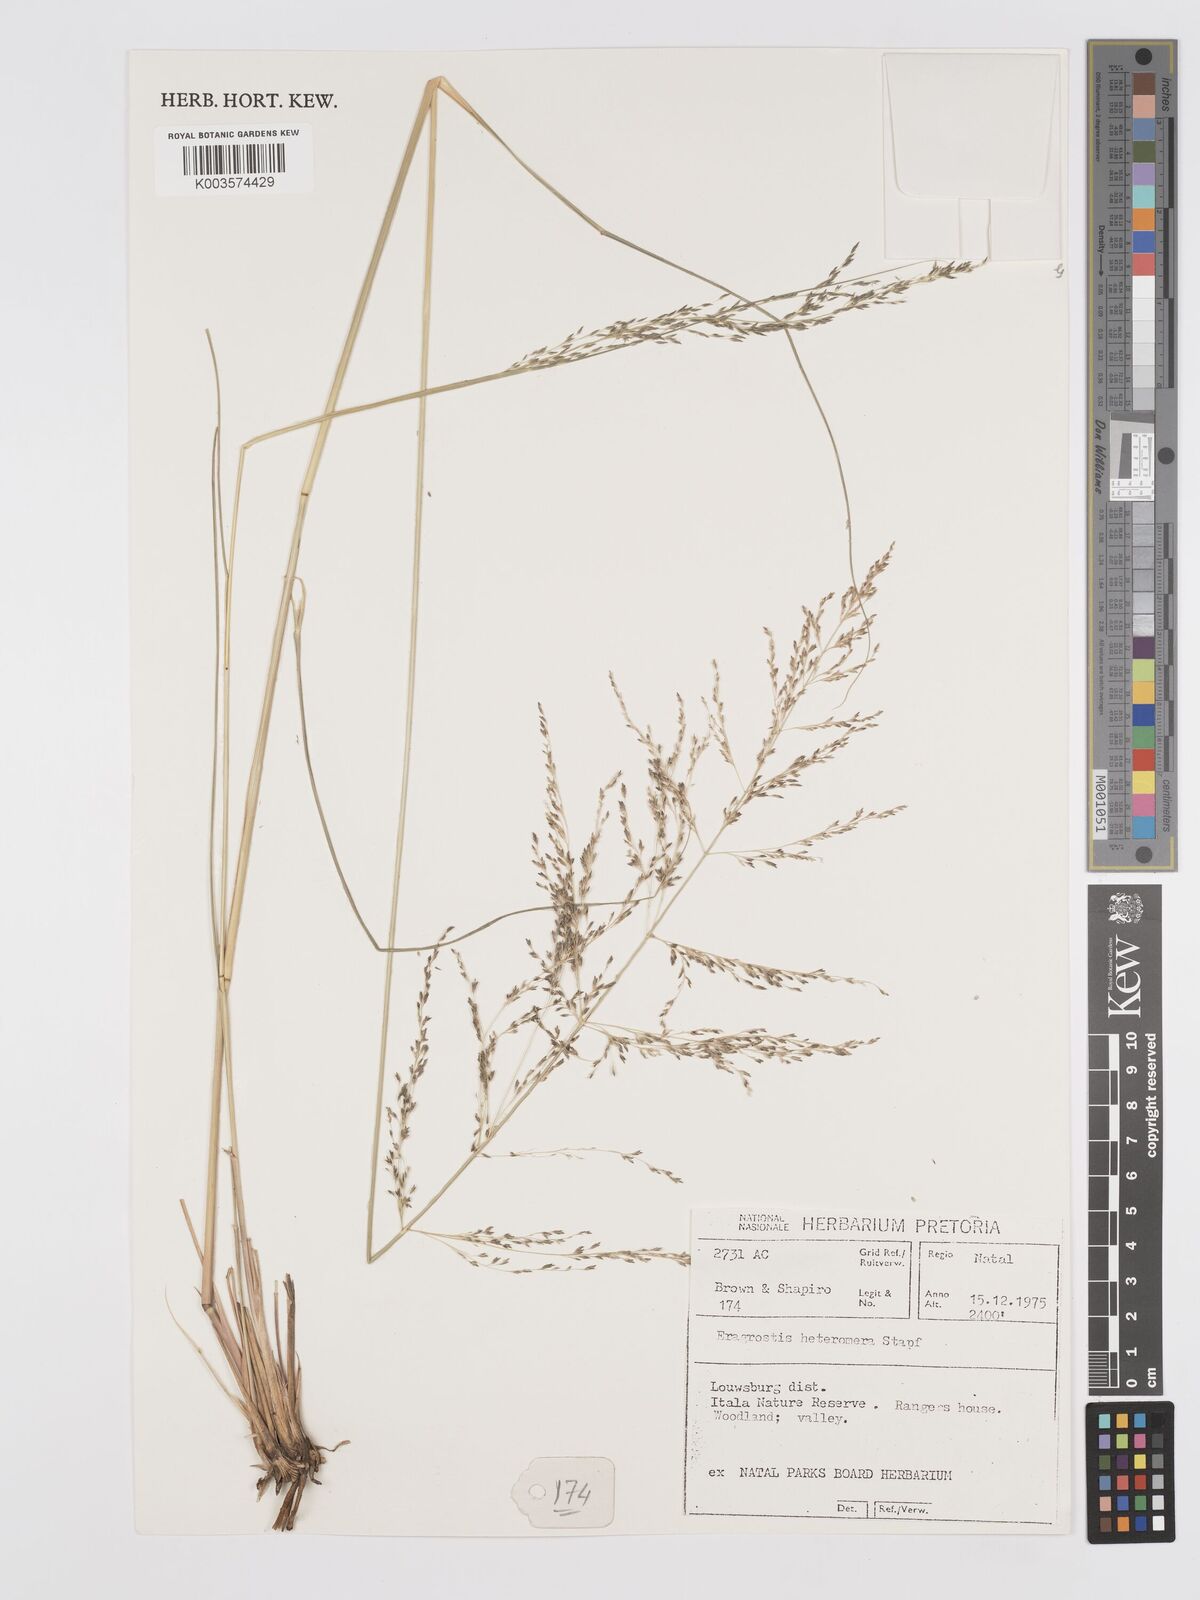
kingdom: Plantae
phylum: Tracheophyta
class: Liliopsida
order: Poales
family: Poaceae
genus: Eragrostis
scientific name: Eragrostis heteromera
